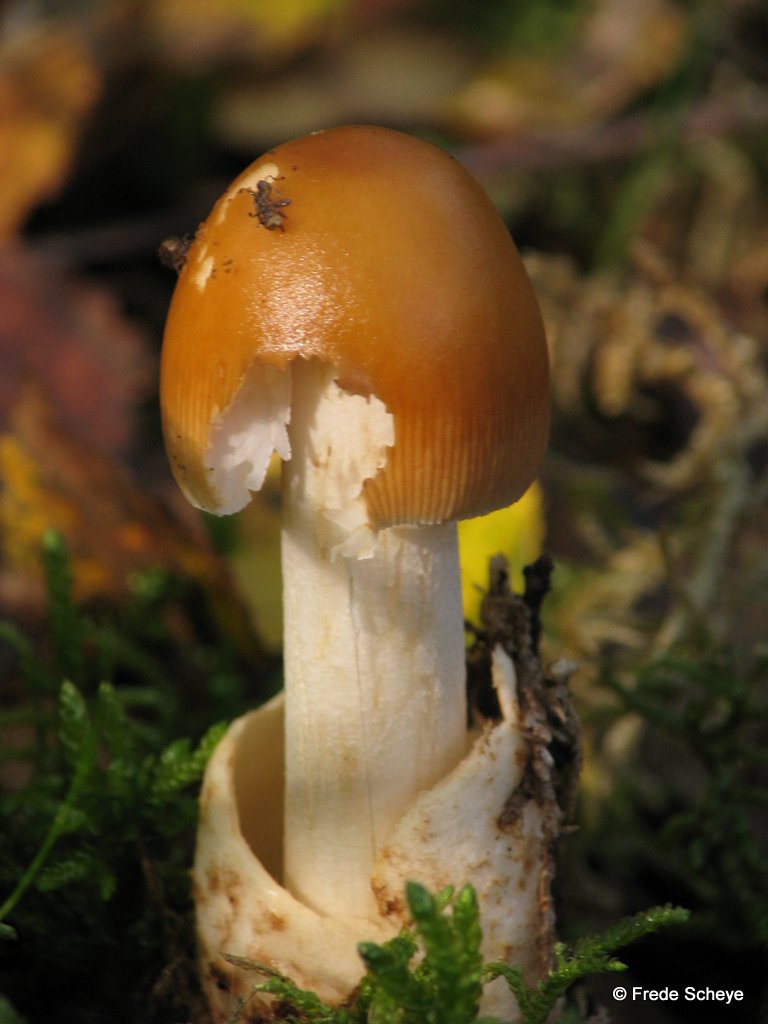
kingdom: Fungi
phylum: Basidiomycota
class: Agaricomycetes
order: Agaricales
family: Amanitaceae
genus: Amanita
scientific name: Amanita fulva
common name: brun kam-fluesvamp
